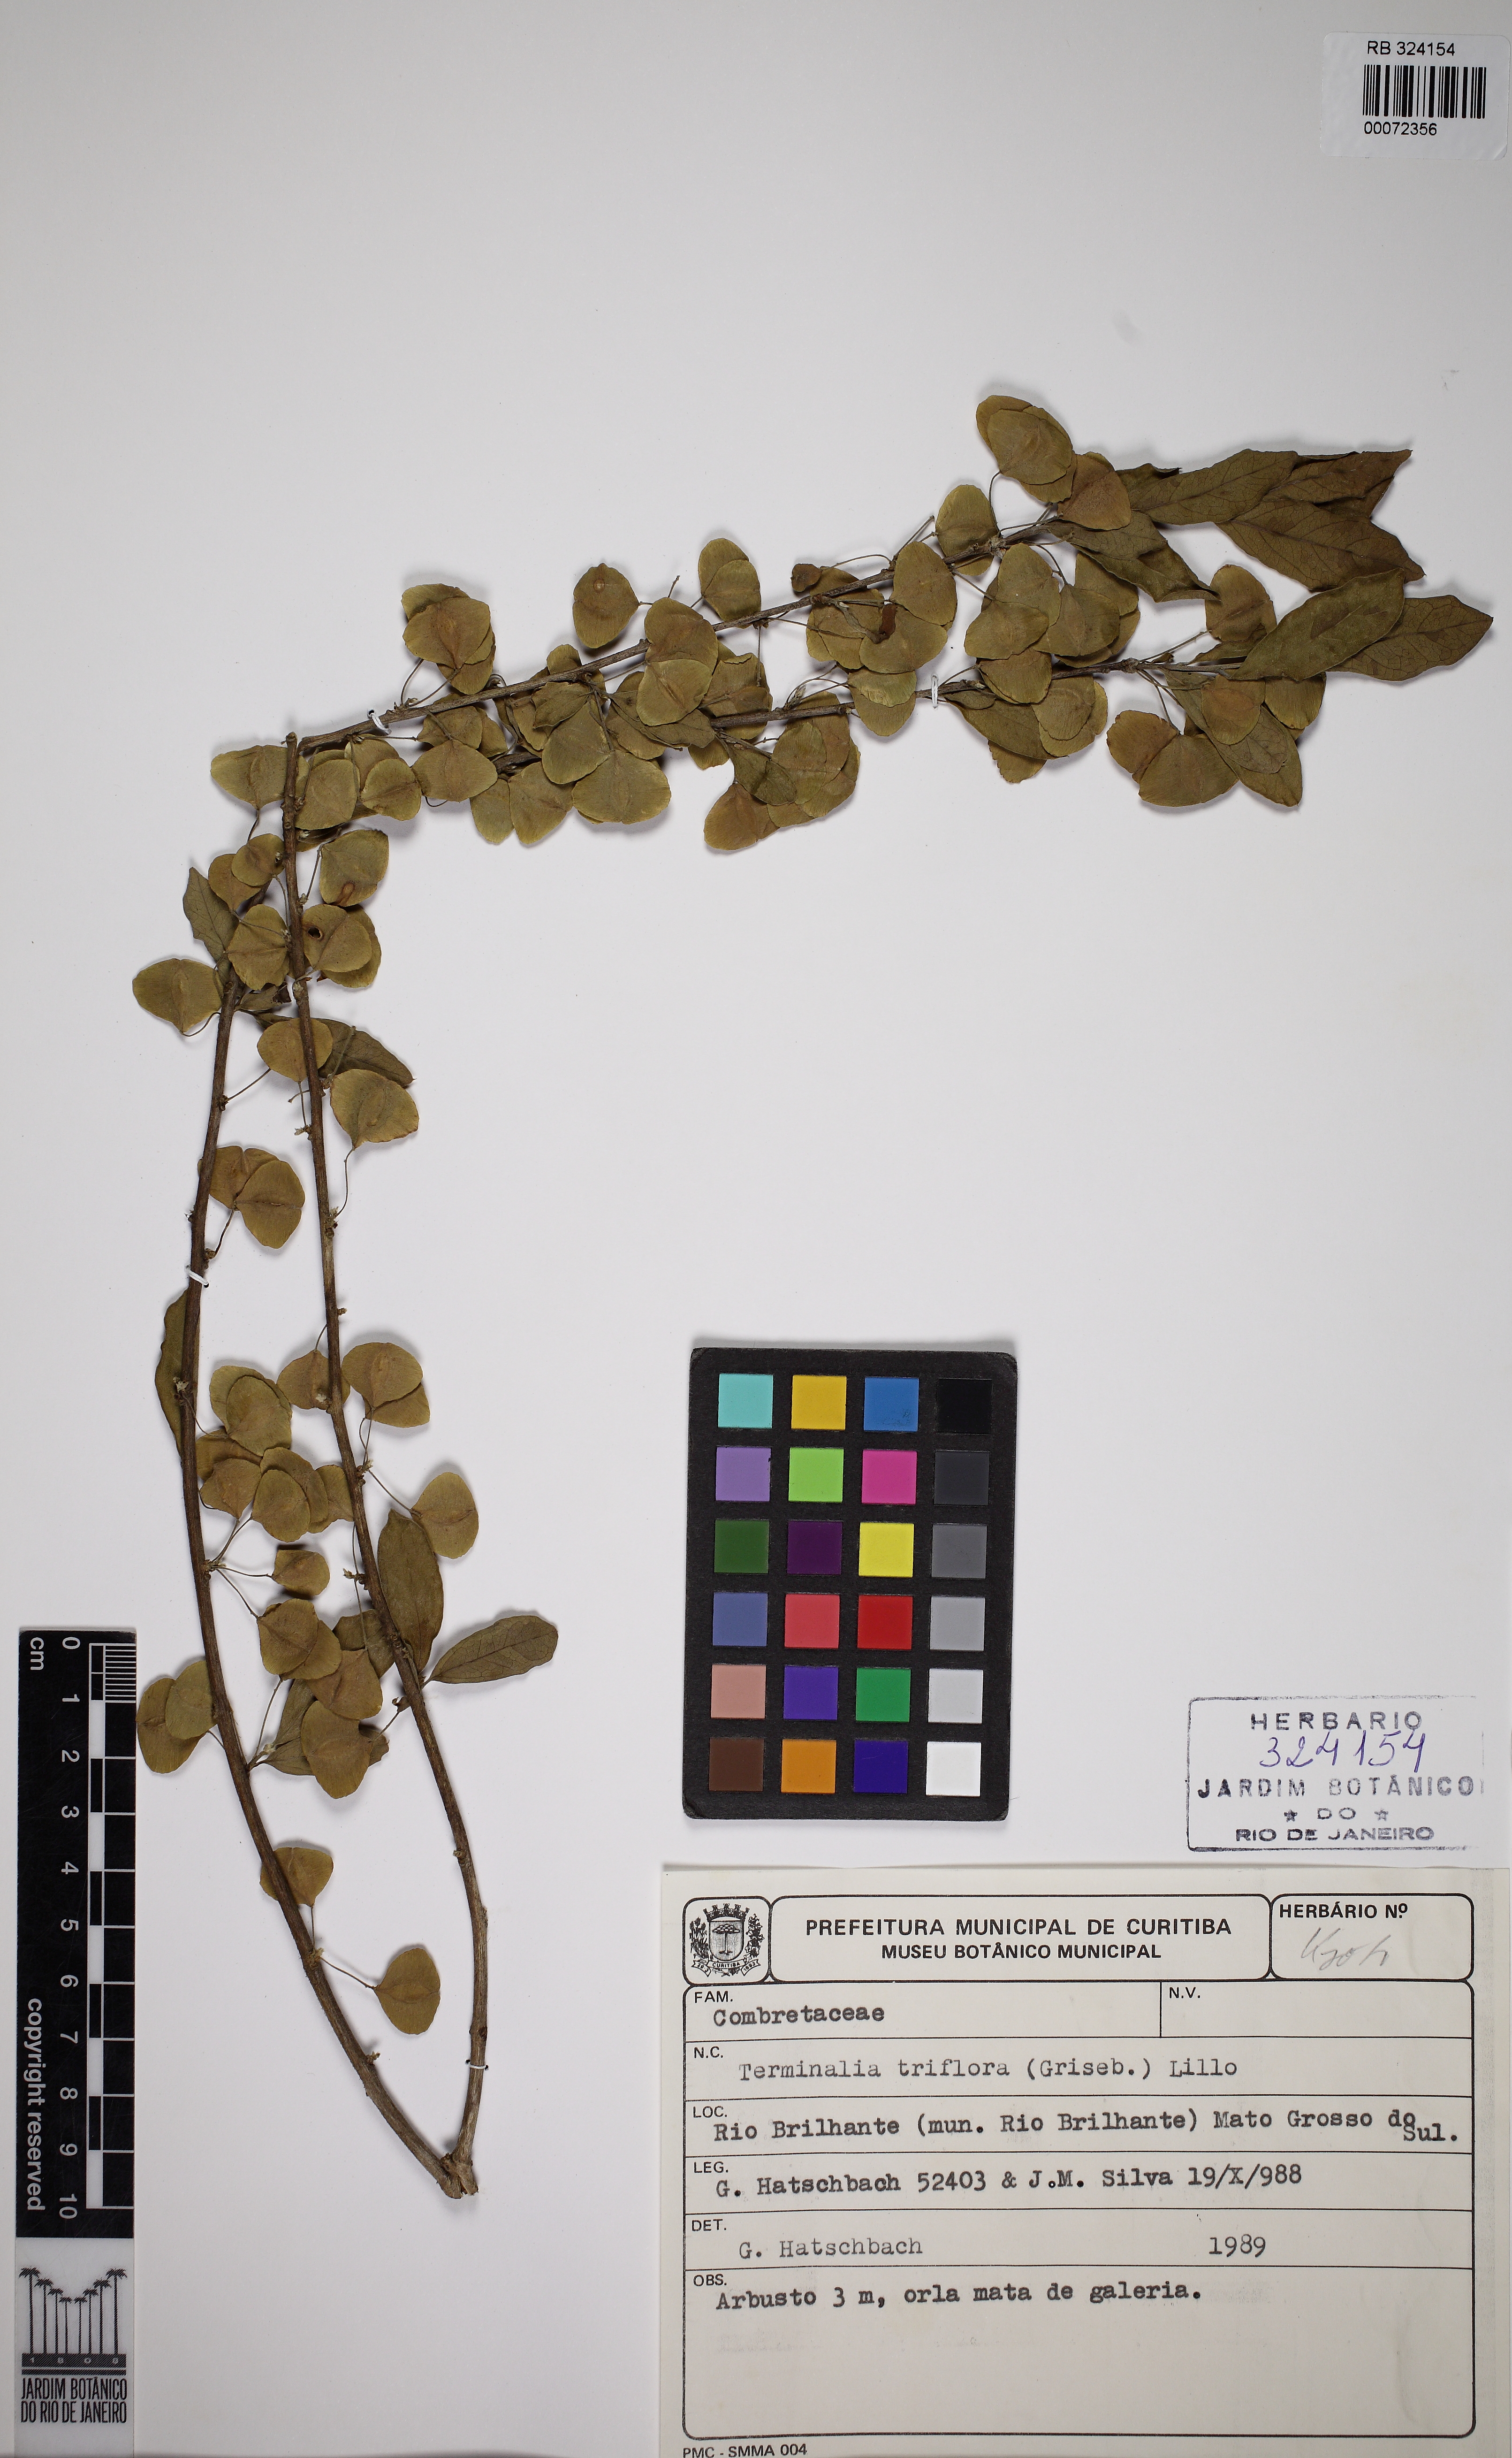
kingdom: Plantae
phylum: Tracheophyta
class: Magnoliopsida
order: Myrtales
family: Combretaceae
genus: Terminalia
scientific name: Terminalia triflora
